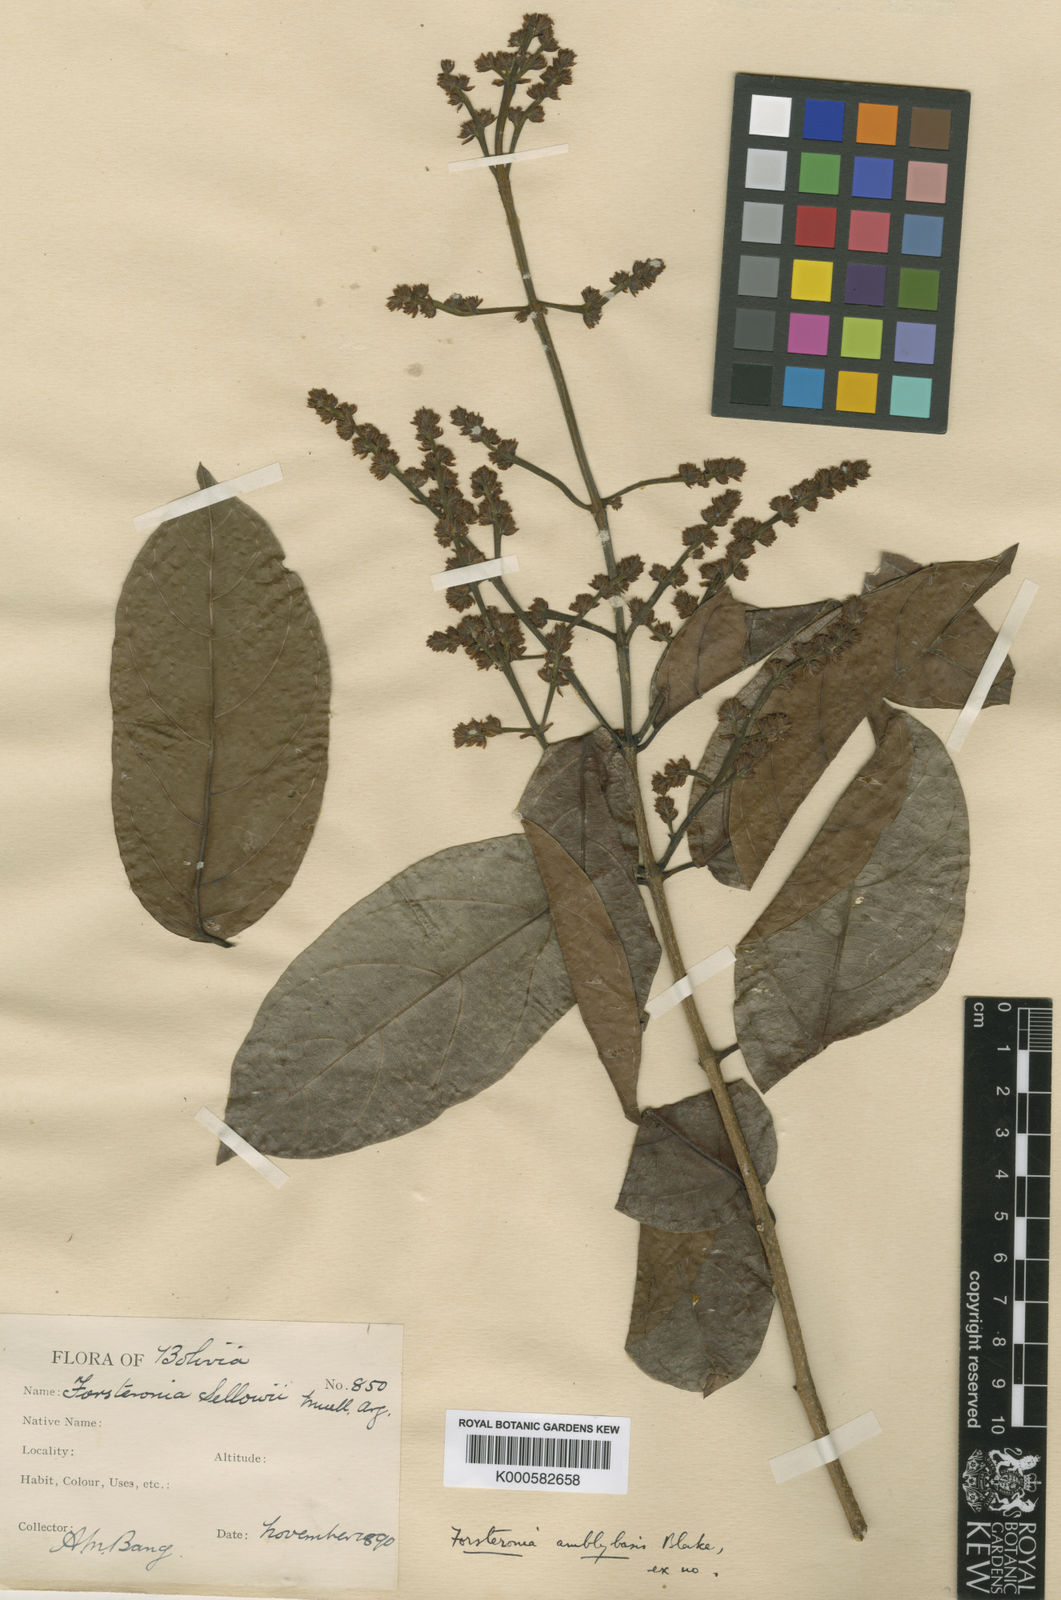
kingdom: Plantae
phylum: Tracheophyta
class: Magnoliopsida
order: Gentianales
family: Apocynaceae
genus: Forsteronia
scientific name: Forsteronia amblybasis
